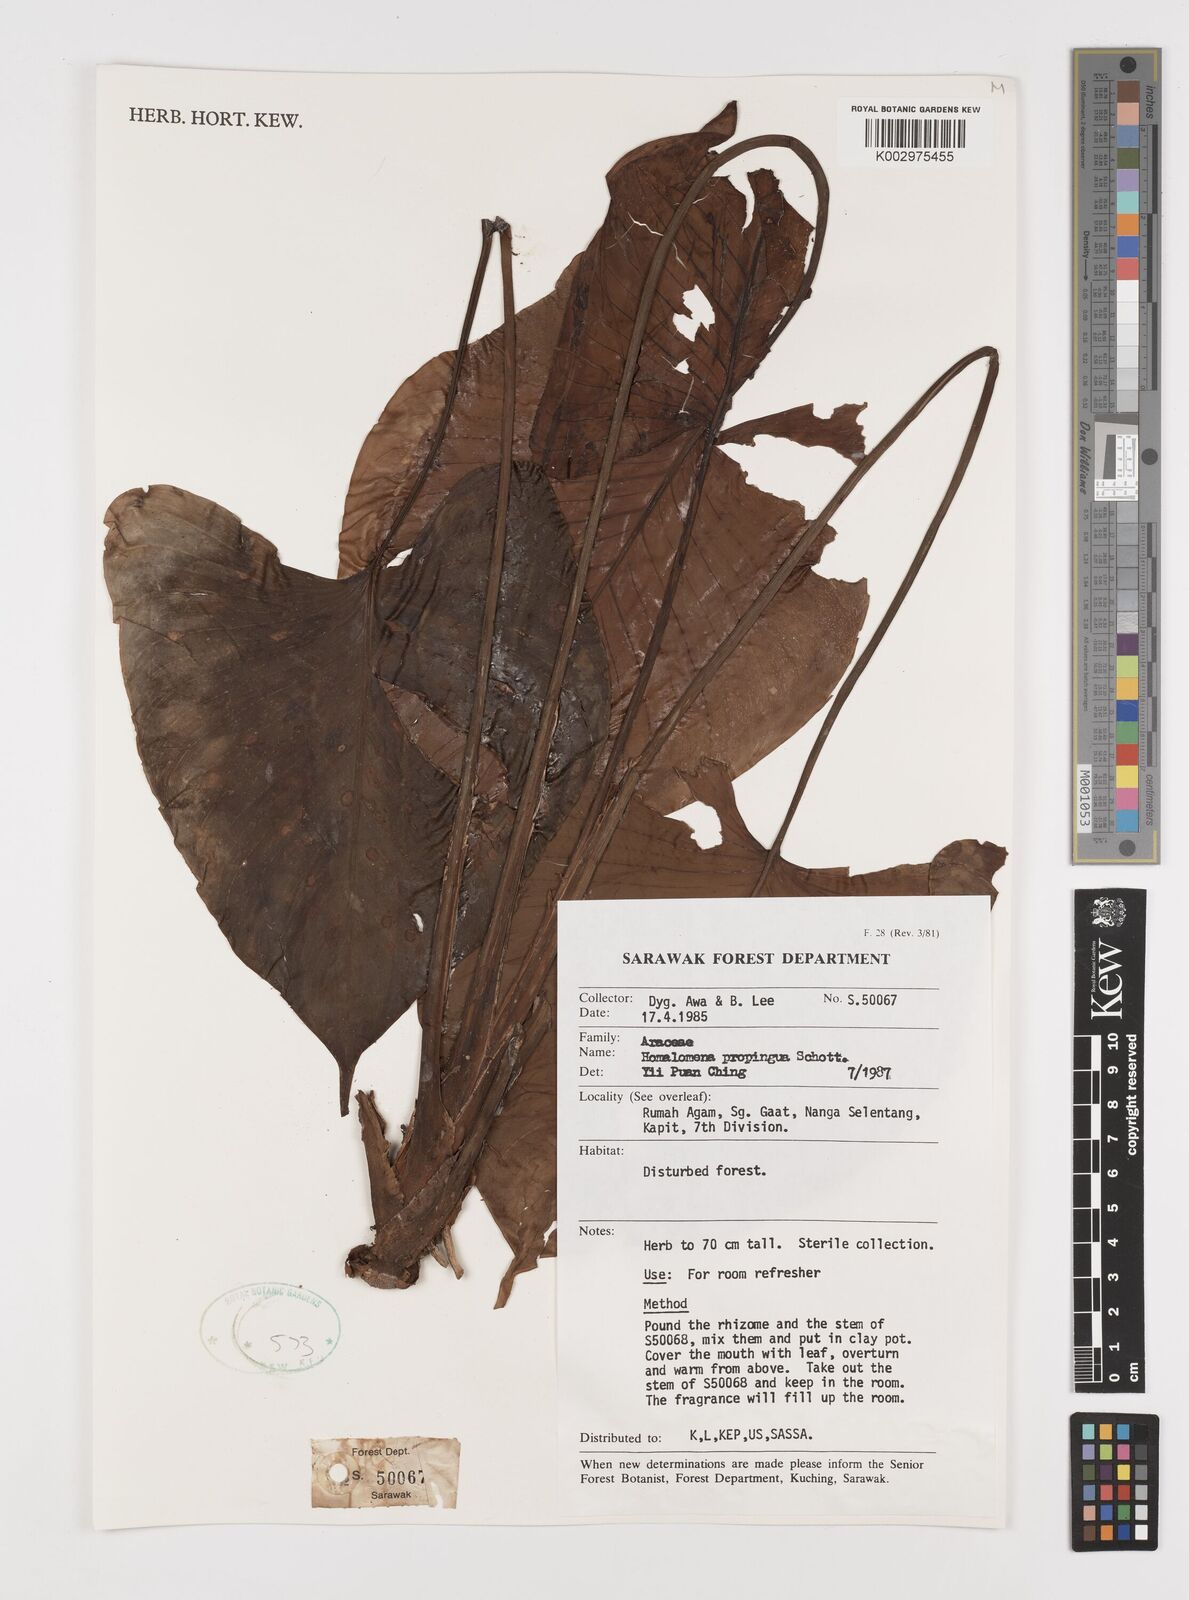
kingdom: Plantae
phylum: Tracheophyta
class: Liliopsida
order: Alismatales
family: Araceae
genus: Homalomena
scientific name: Homalomena humilis
